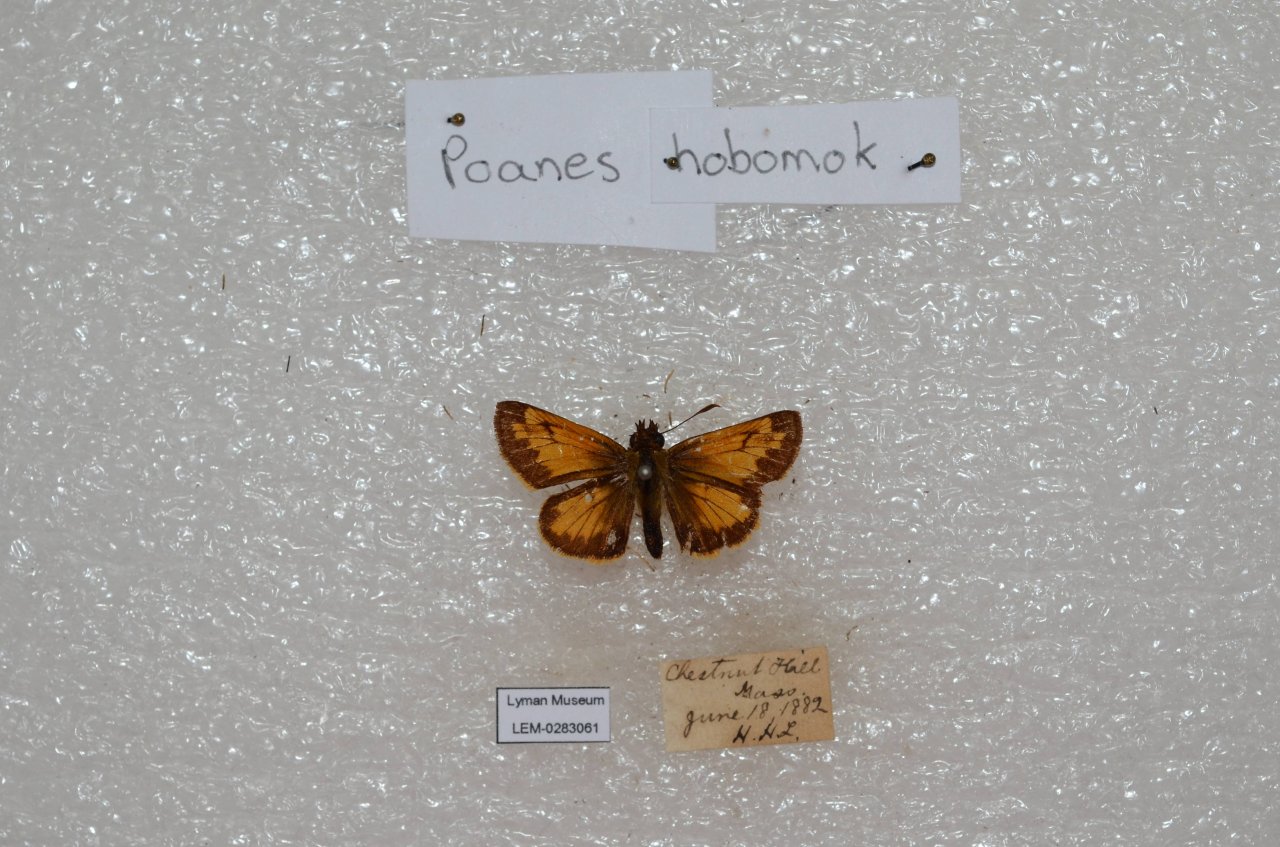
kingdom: Animalia
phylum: Arthropoda
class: Insecta
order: Lepidoptera
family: Hesperiidae
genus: Lon
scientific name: Lon hobomok
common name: Hobomok Skipper
